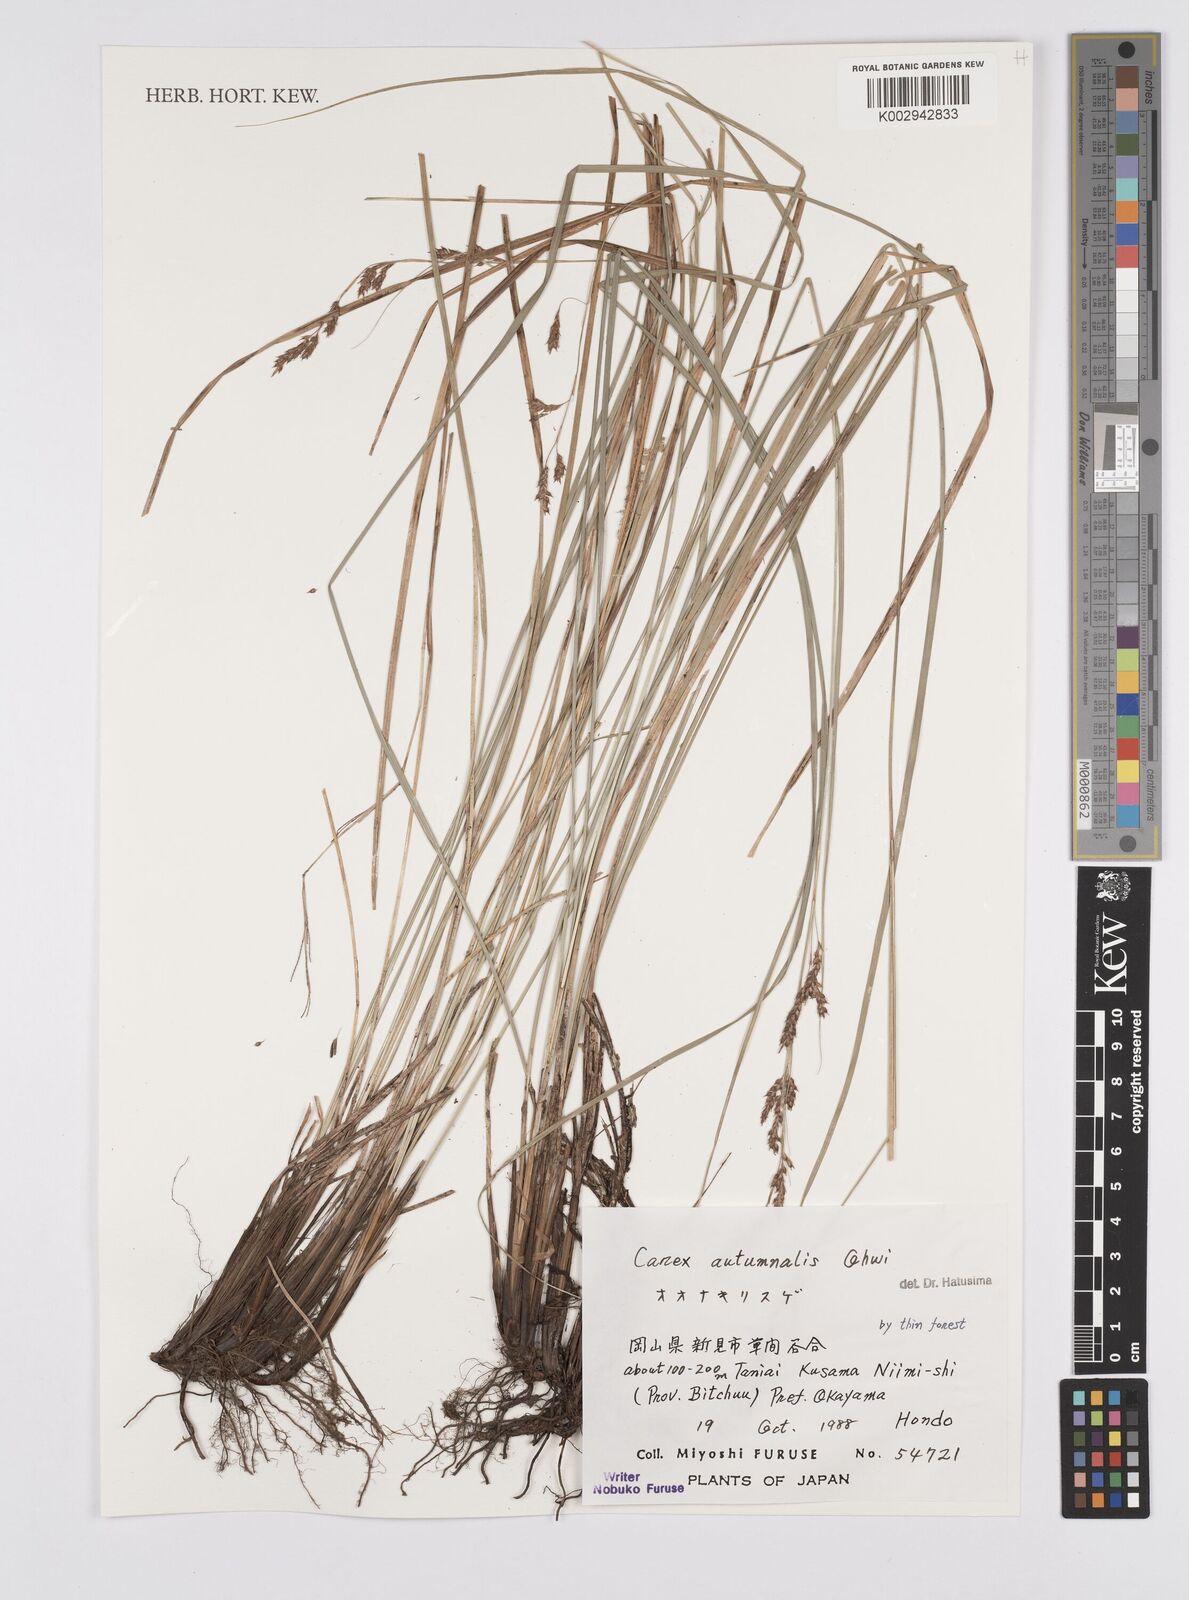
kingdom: Plantae
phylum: Tracheophyta
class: Liliopsida
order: Poales
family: Cyperaceae
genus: Carex
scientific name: Carex autumnalis
